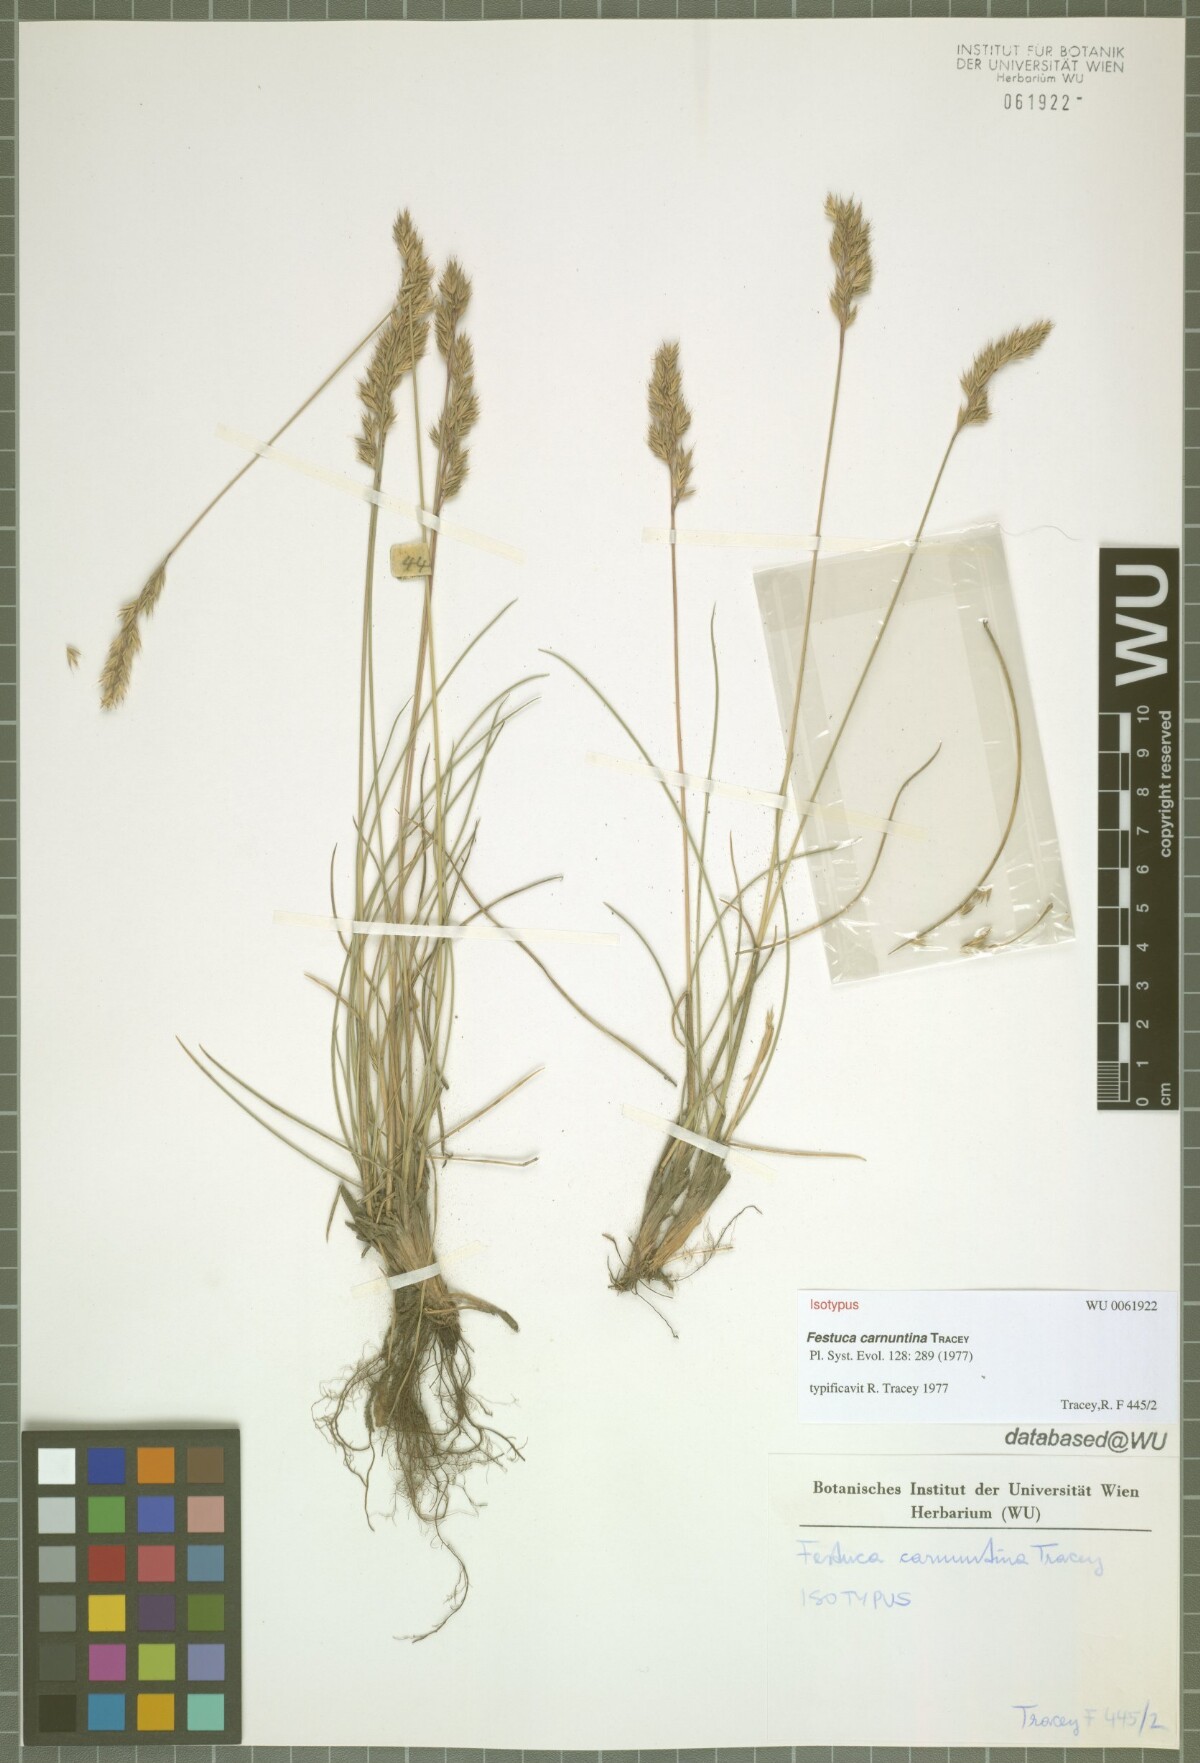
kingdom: Plantae
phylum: Tracheophyta
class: Liliopsida
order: Poales
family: Poaceae
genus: Festuca
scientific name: Festuca carnuntina
